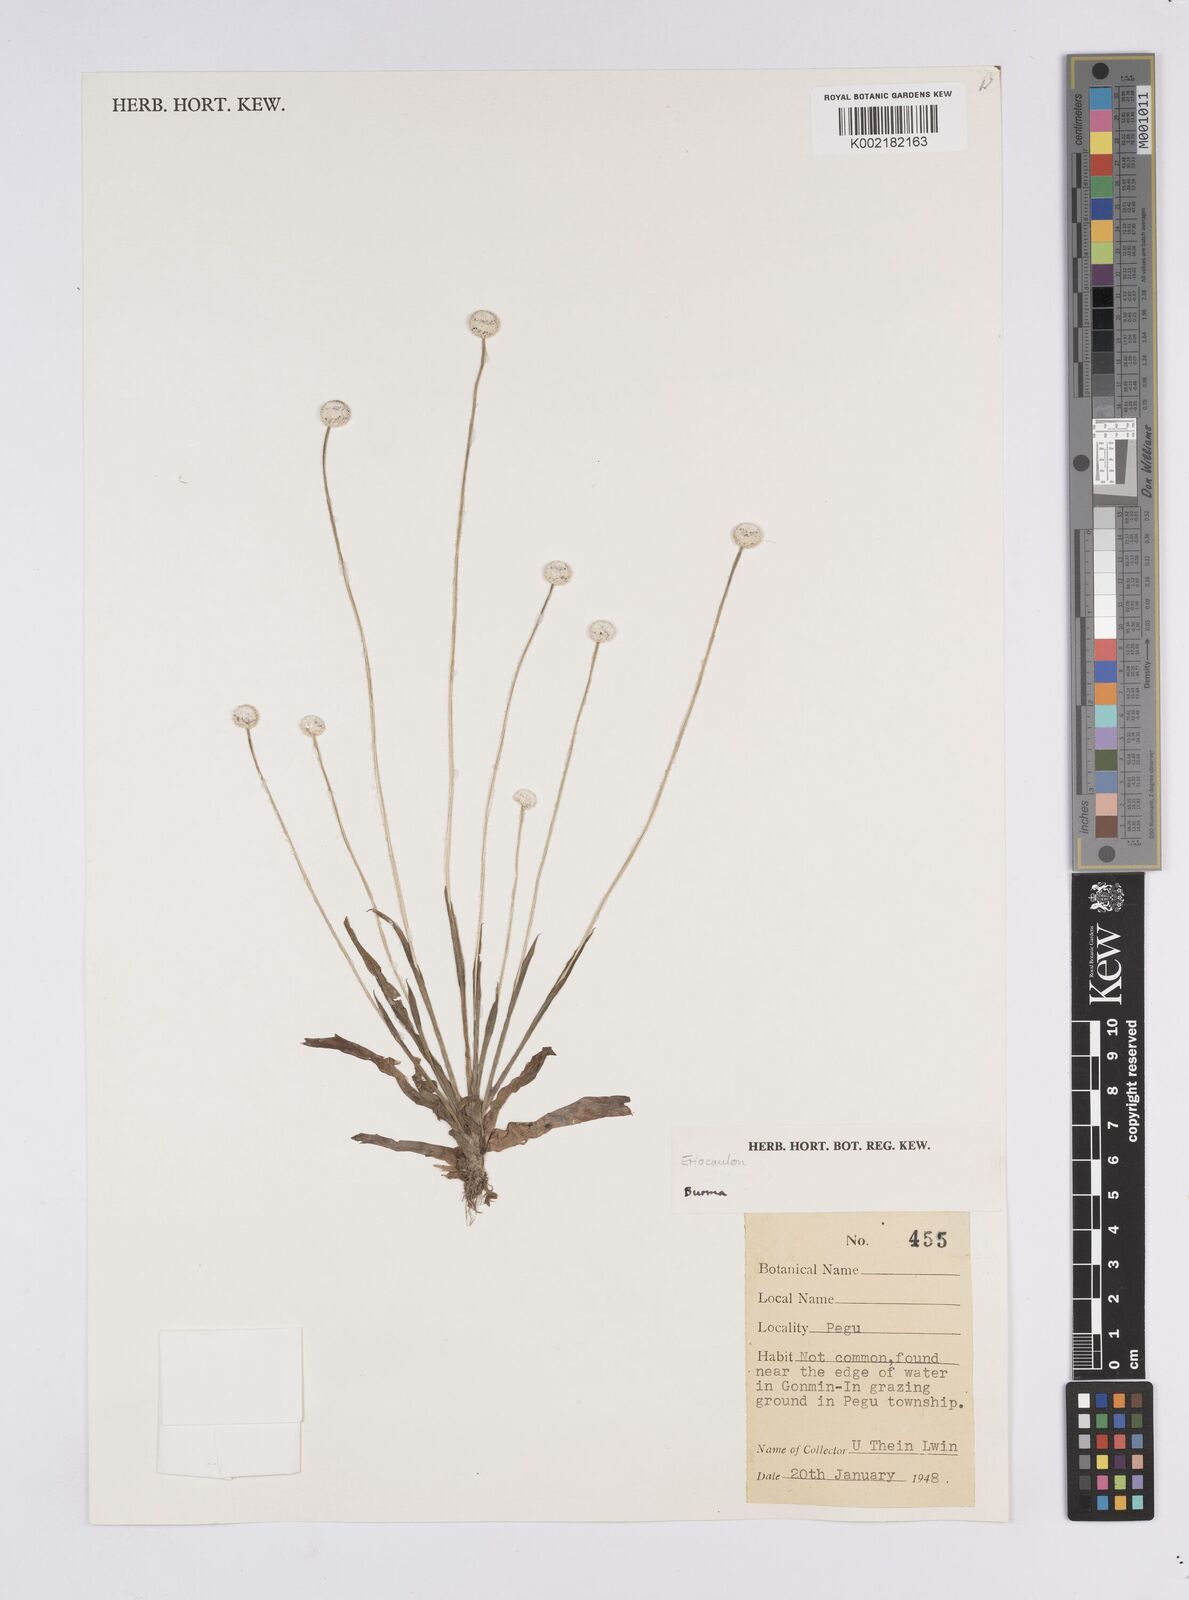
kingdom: Plantae
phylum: Tracheophyta
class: Liliopsida
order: Poales
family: Eriocaulaceae
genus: Eriocaulon
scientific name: Eriocaulon
